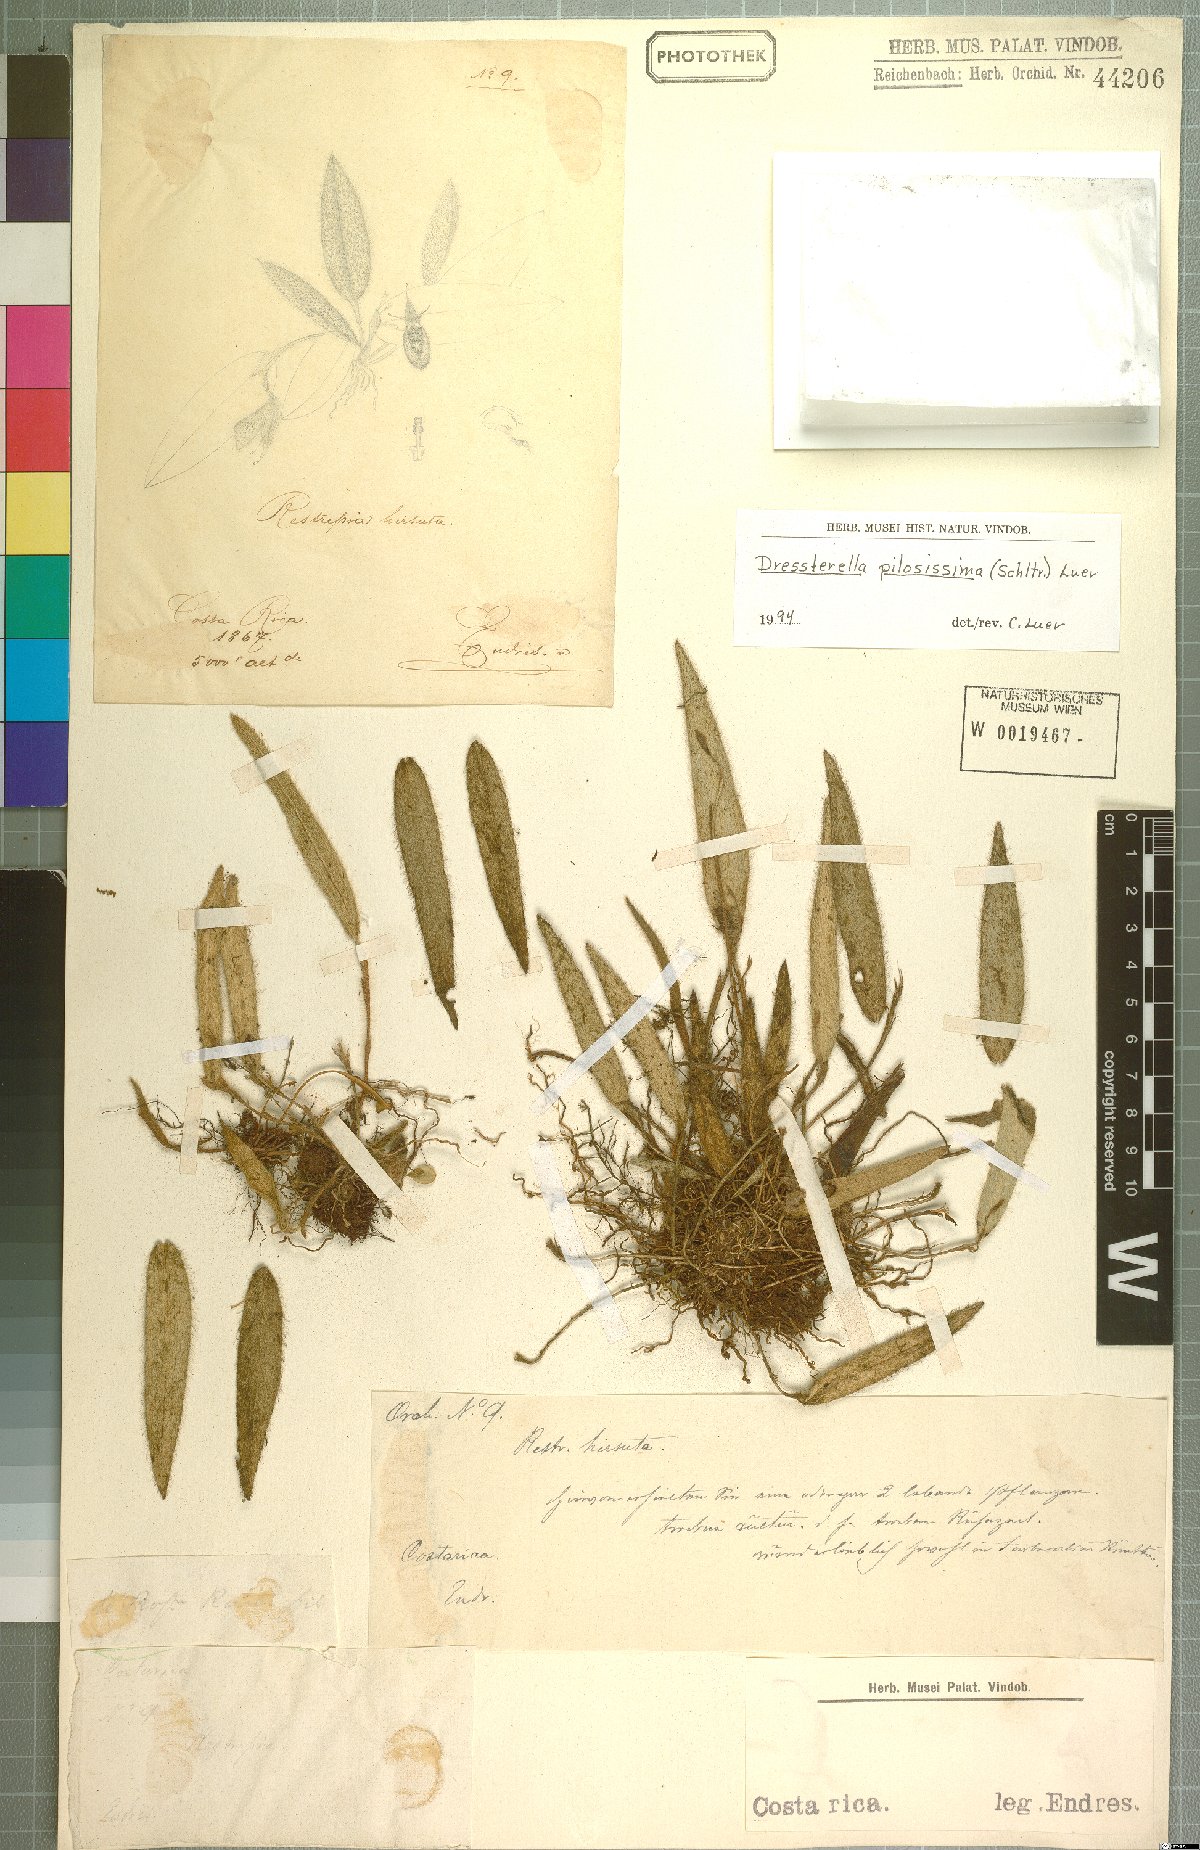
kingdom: Plantae
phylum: Tracheophyta
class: Liliopsida
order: Asparagales
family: Orchidaceae
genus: Dresslerella
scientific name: Dresslerella pilosissima
